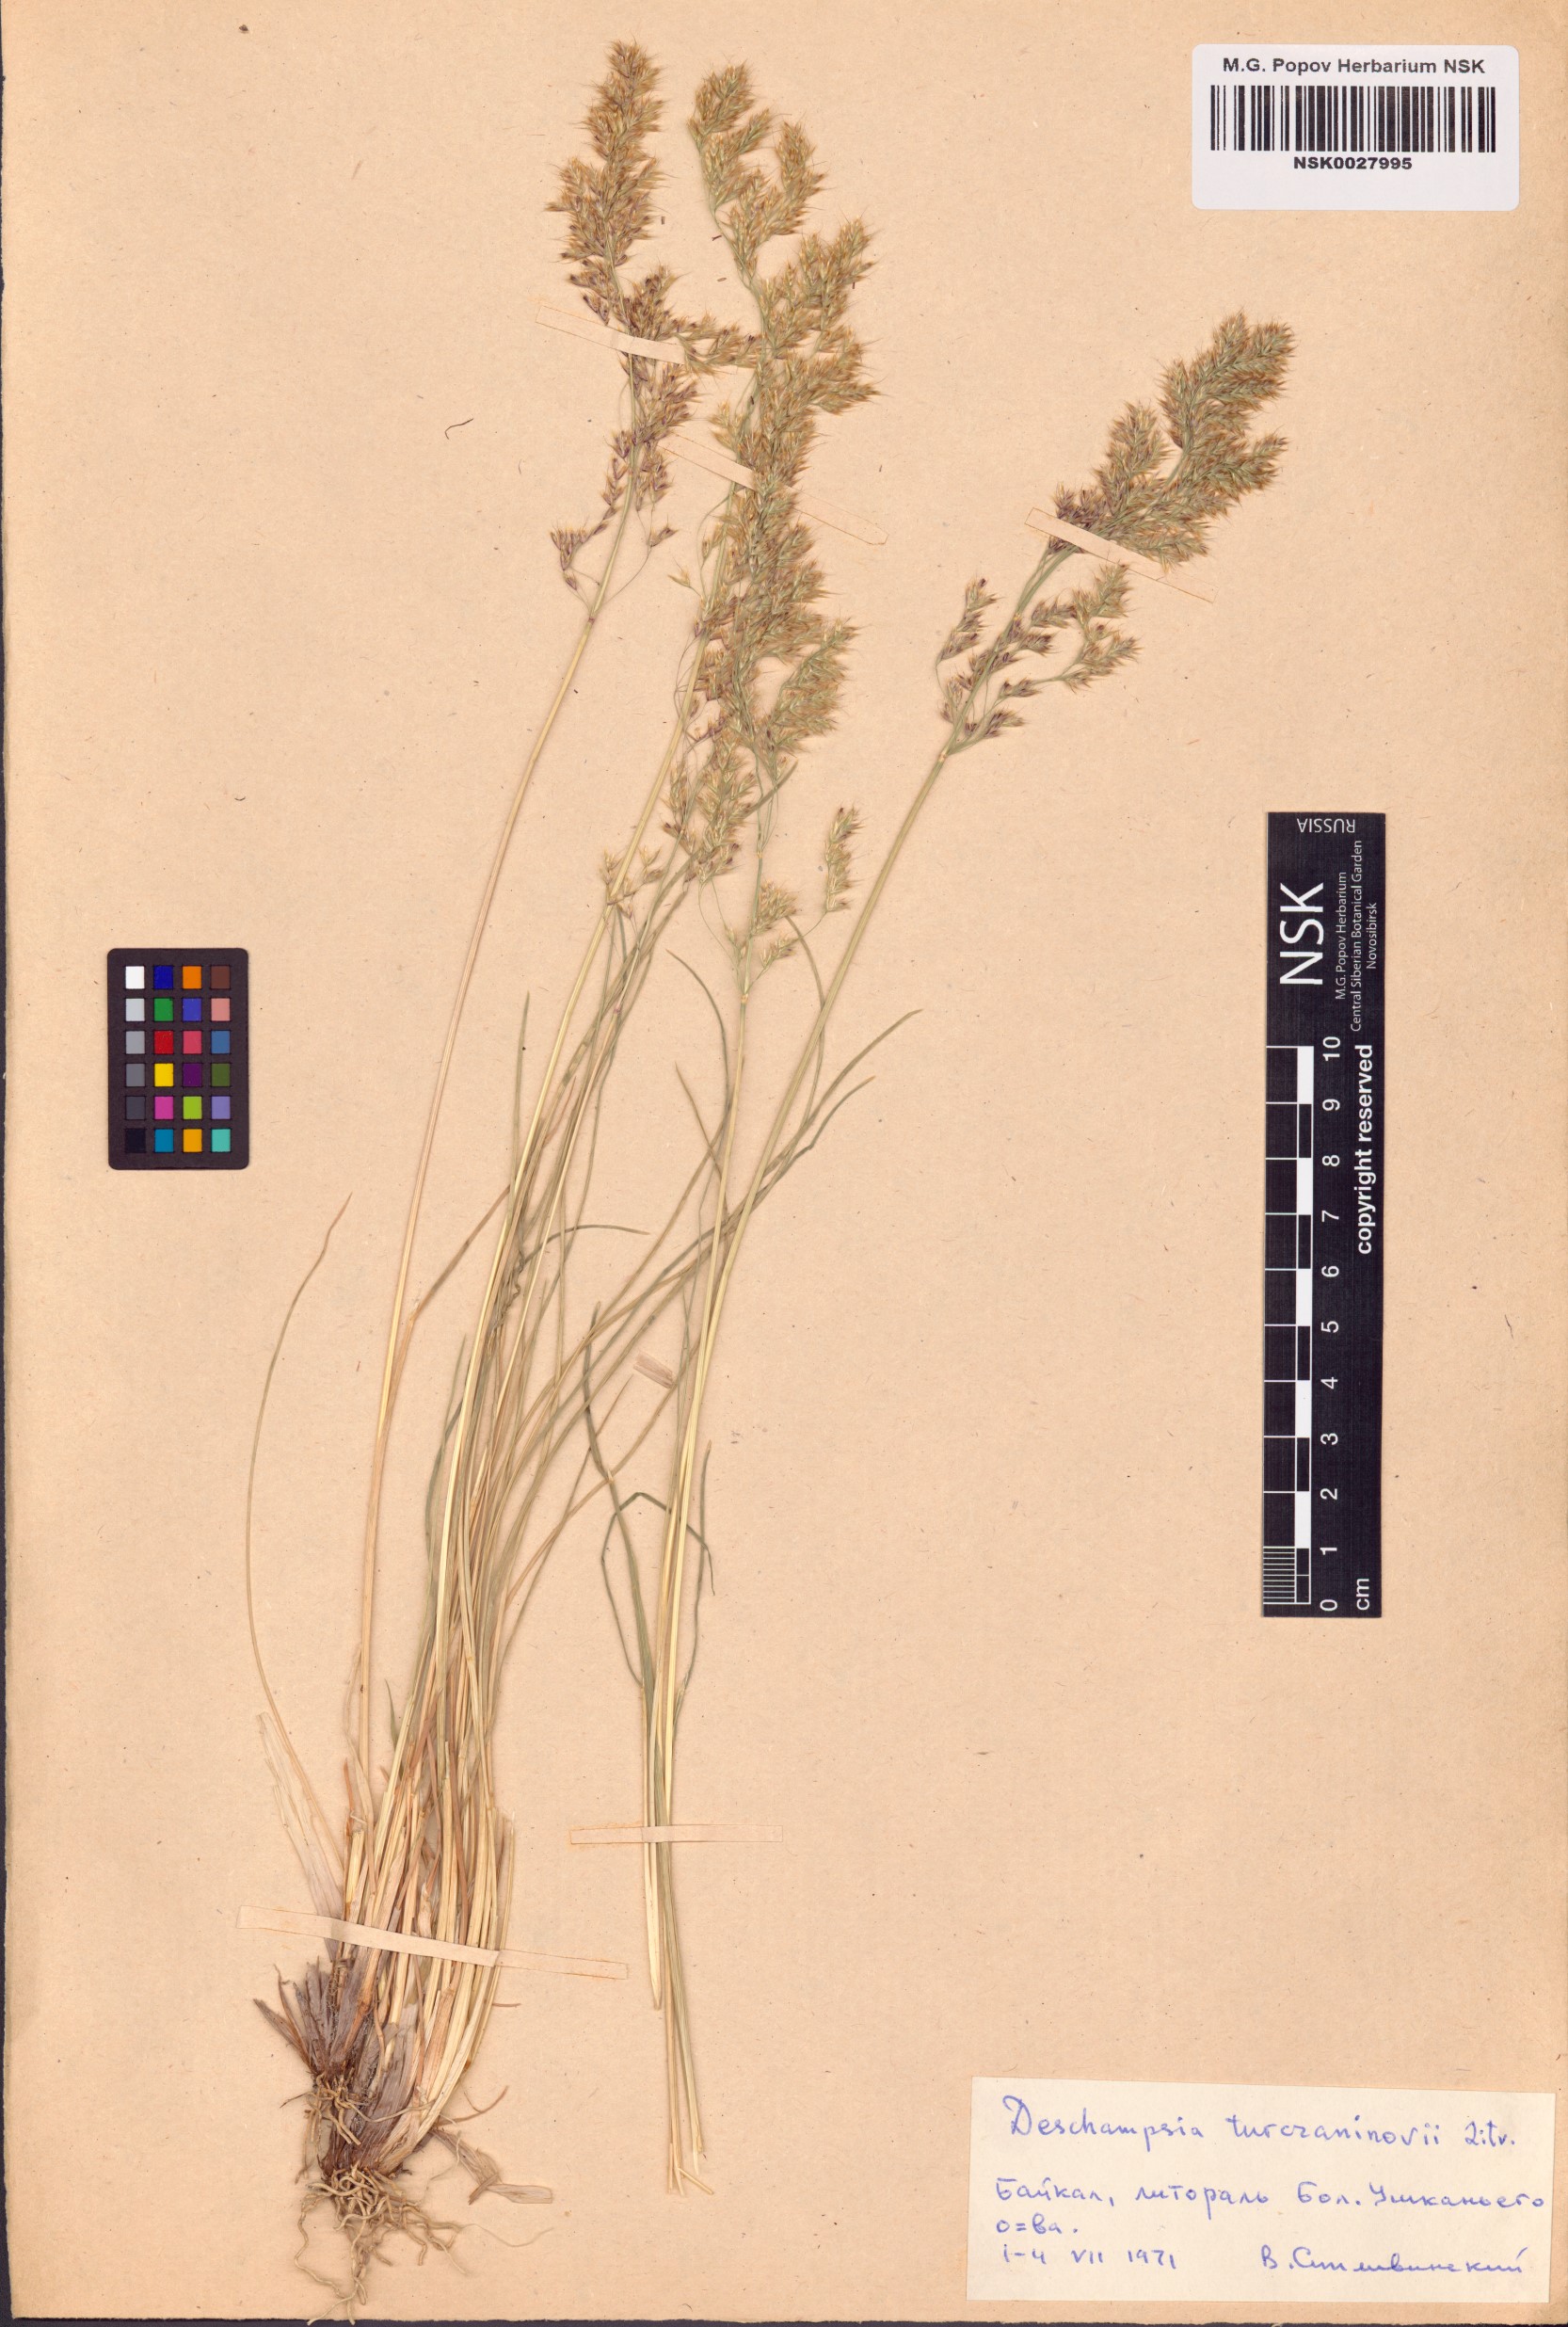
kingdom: Plantae
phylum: Tracheophyta
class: Liliopsida
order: Poales
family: Poaceae
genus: Deschampsia
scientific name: Deschampsia cespitosa
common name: Tufted hair-grass
